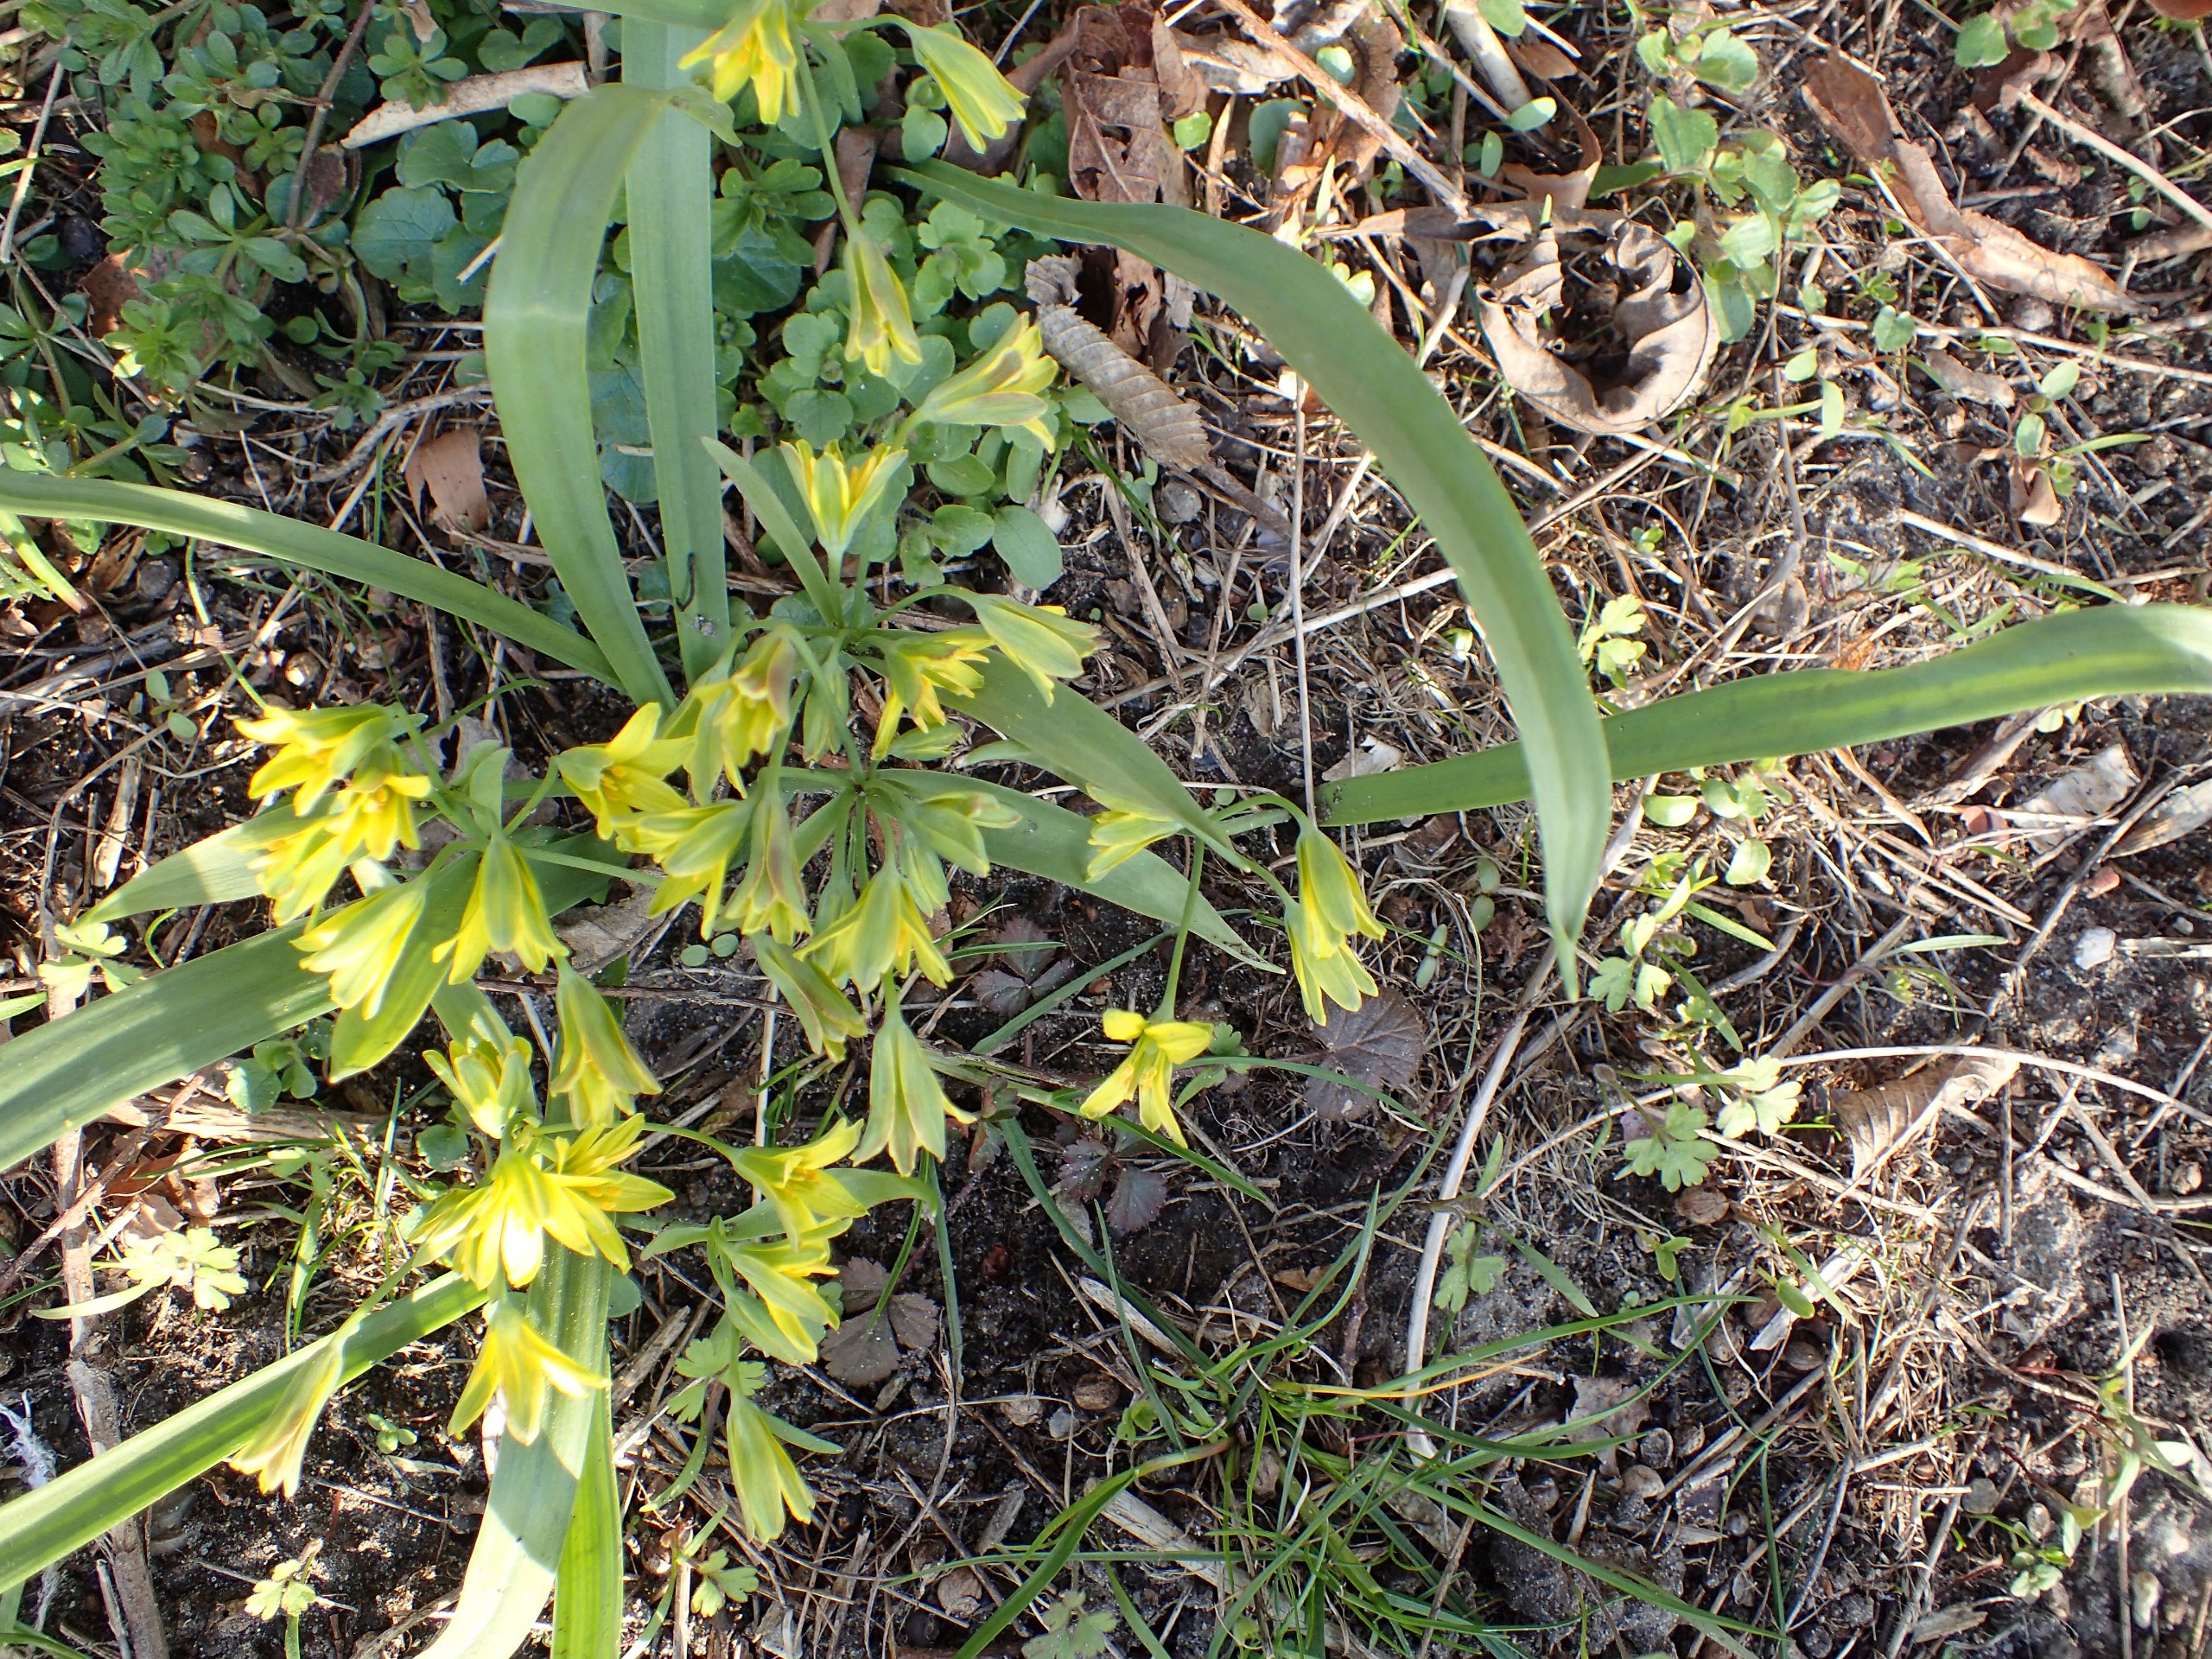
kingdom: Plantae
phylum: Tracheophyta
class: Liliopsida
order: Liliales
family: Liliaceae
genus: Gagea
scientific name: Gagea lutea
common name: Almindelig guldstjerne
